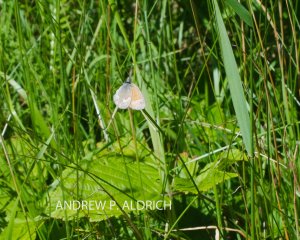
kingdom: Animalia
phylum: Arthropoda
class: Insecta
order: Lepidoptera
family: Nymphalidae
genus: Coenonympha
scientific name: Coenonympha tullia
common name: Large Heath
